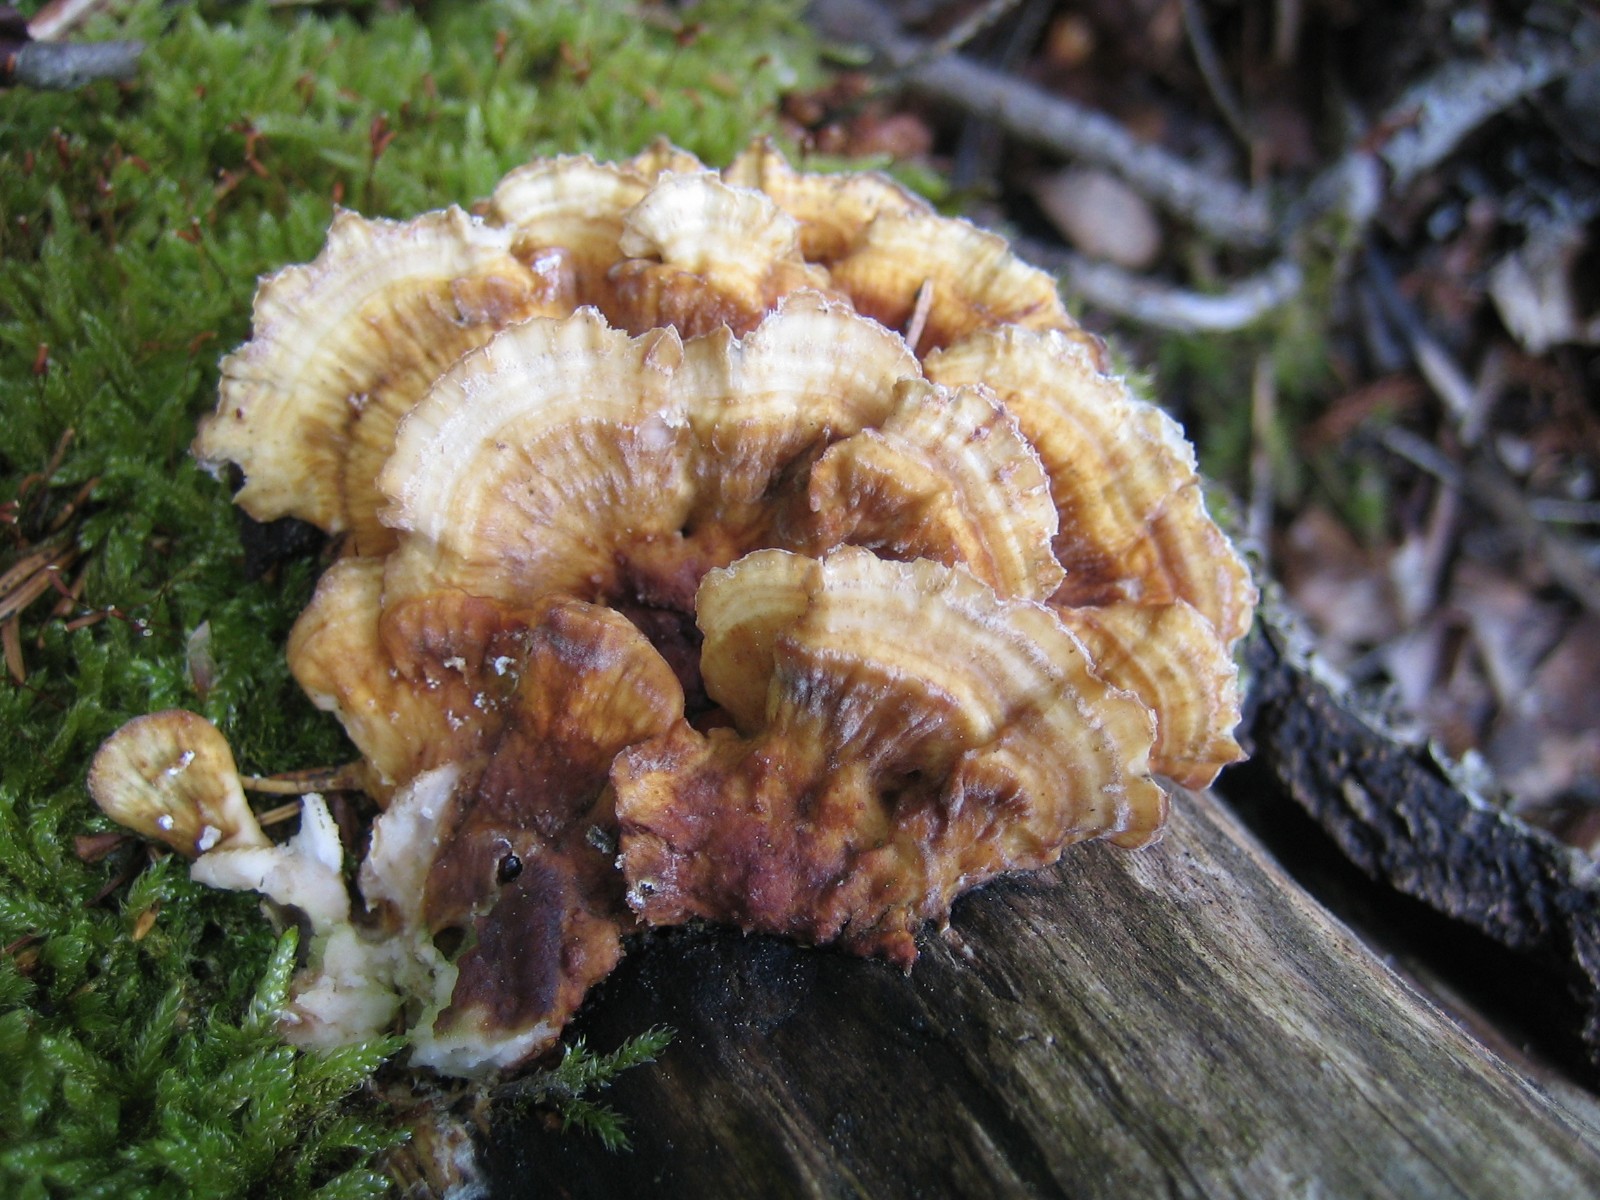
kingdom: Fungi
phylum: Basidiomycota
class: Agaricomycetes
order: Polyporales
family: Polyporaceae
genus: Trametes
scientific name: Trametes
